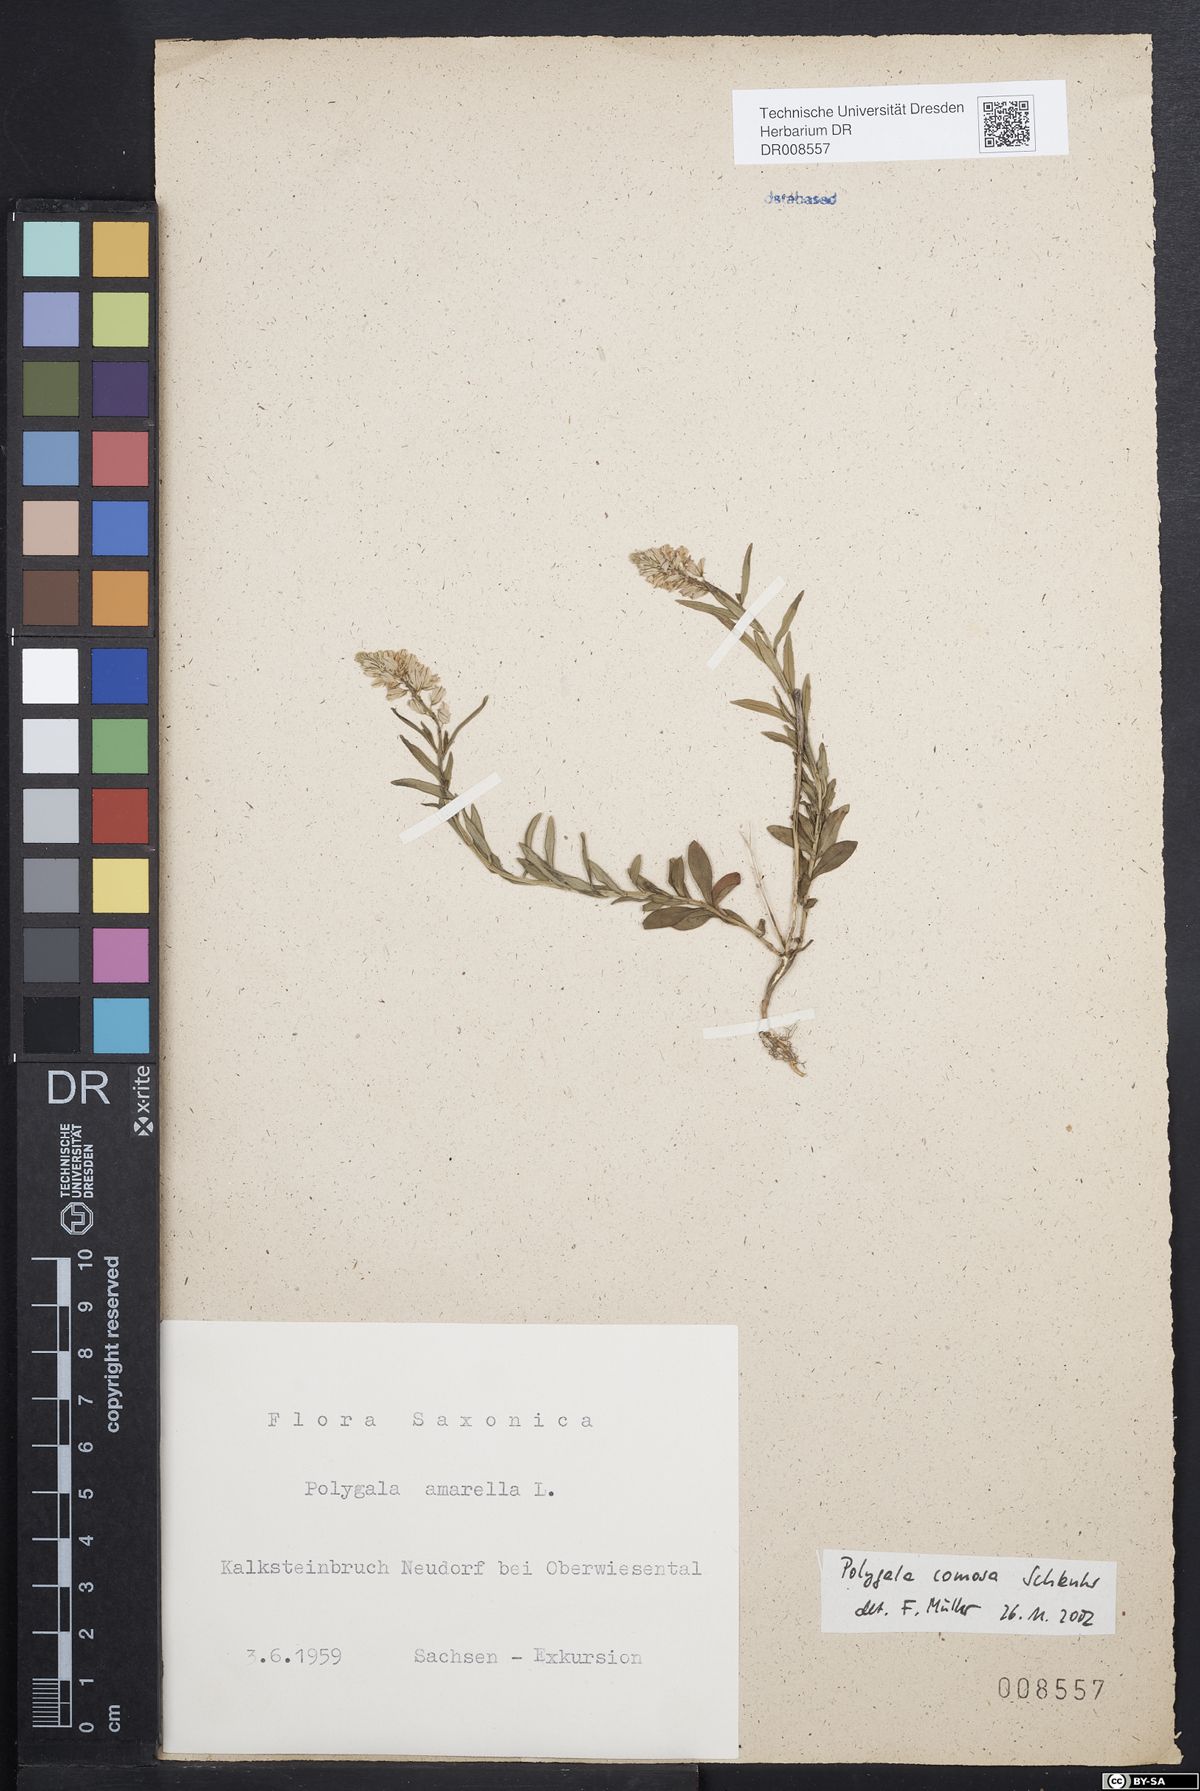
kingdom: Plantae
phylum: Tracheophyta
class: Magnoliopsida
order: Fabales
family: Polygalaceae
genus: Polygala
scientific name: Polygala comosa
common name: Tufted milkwort
